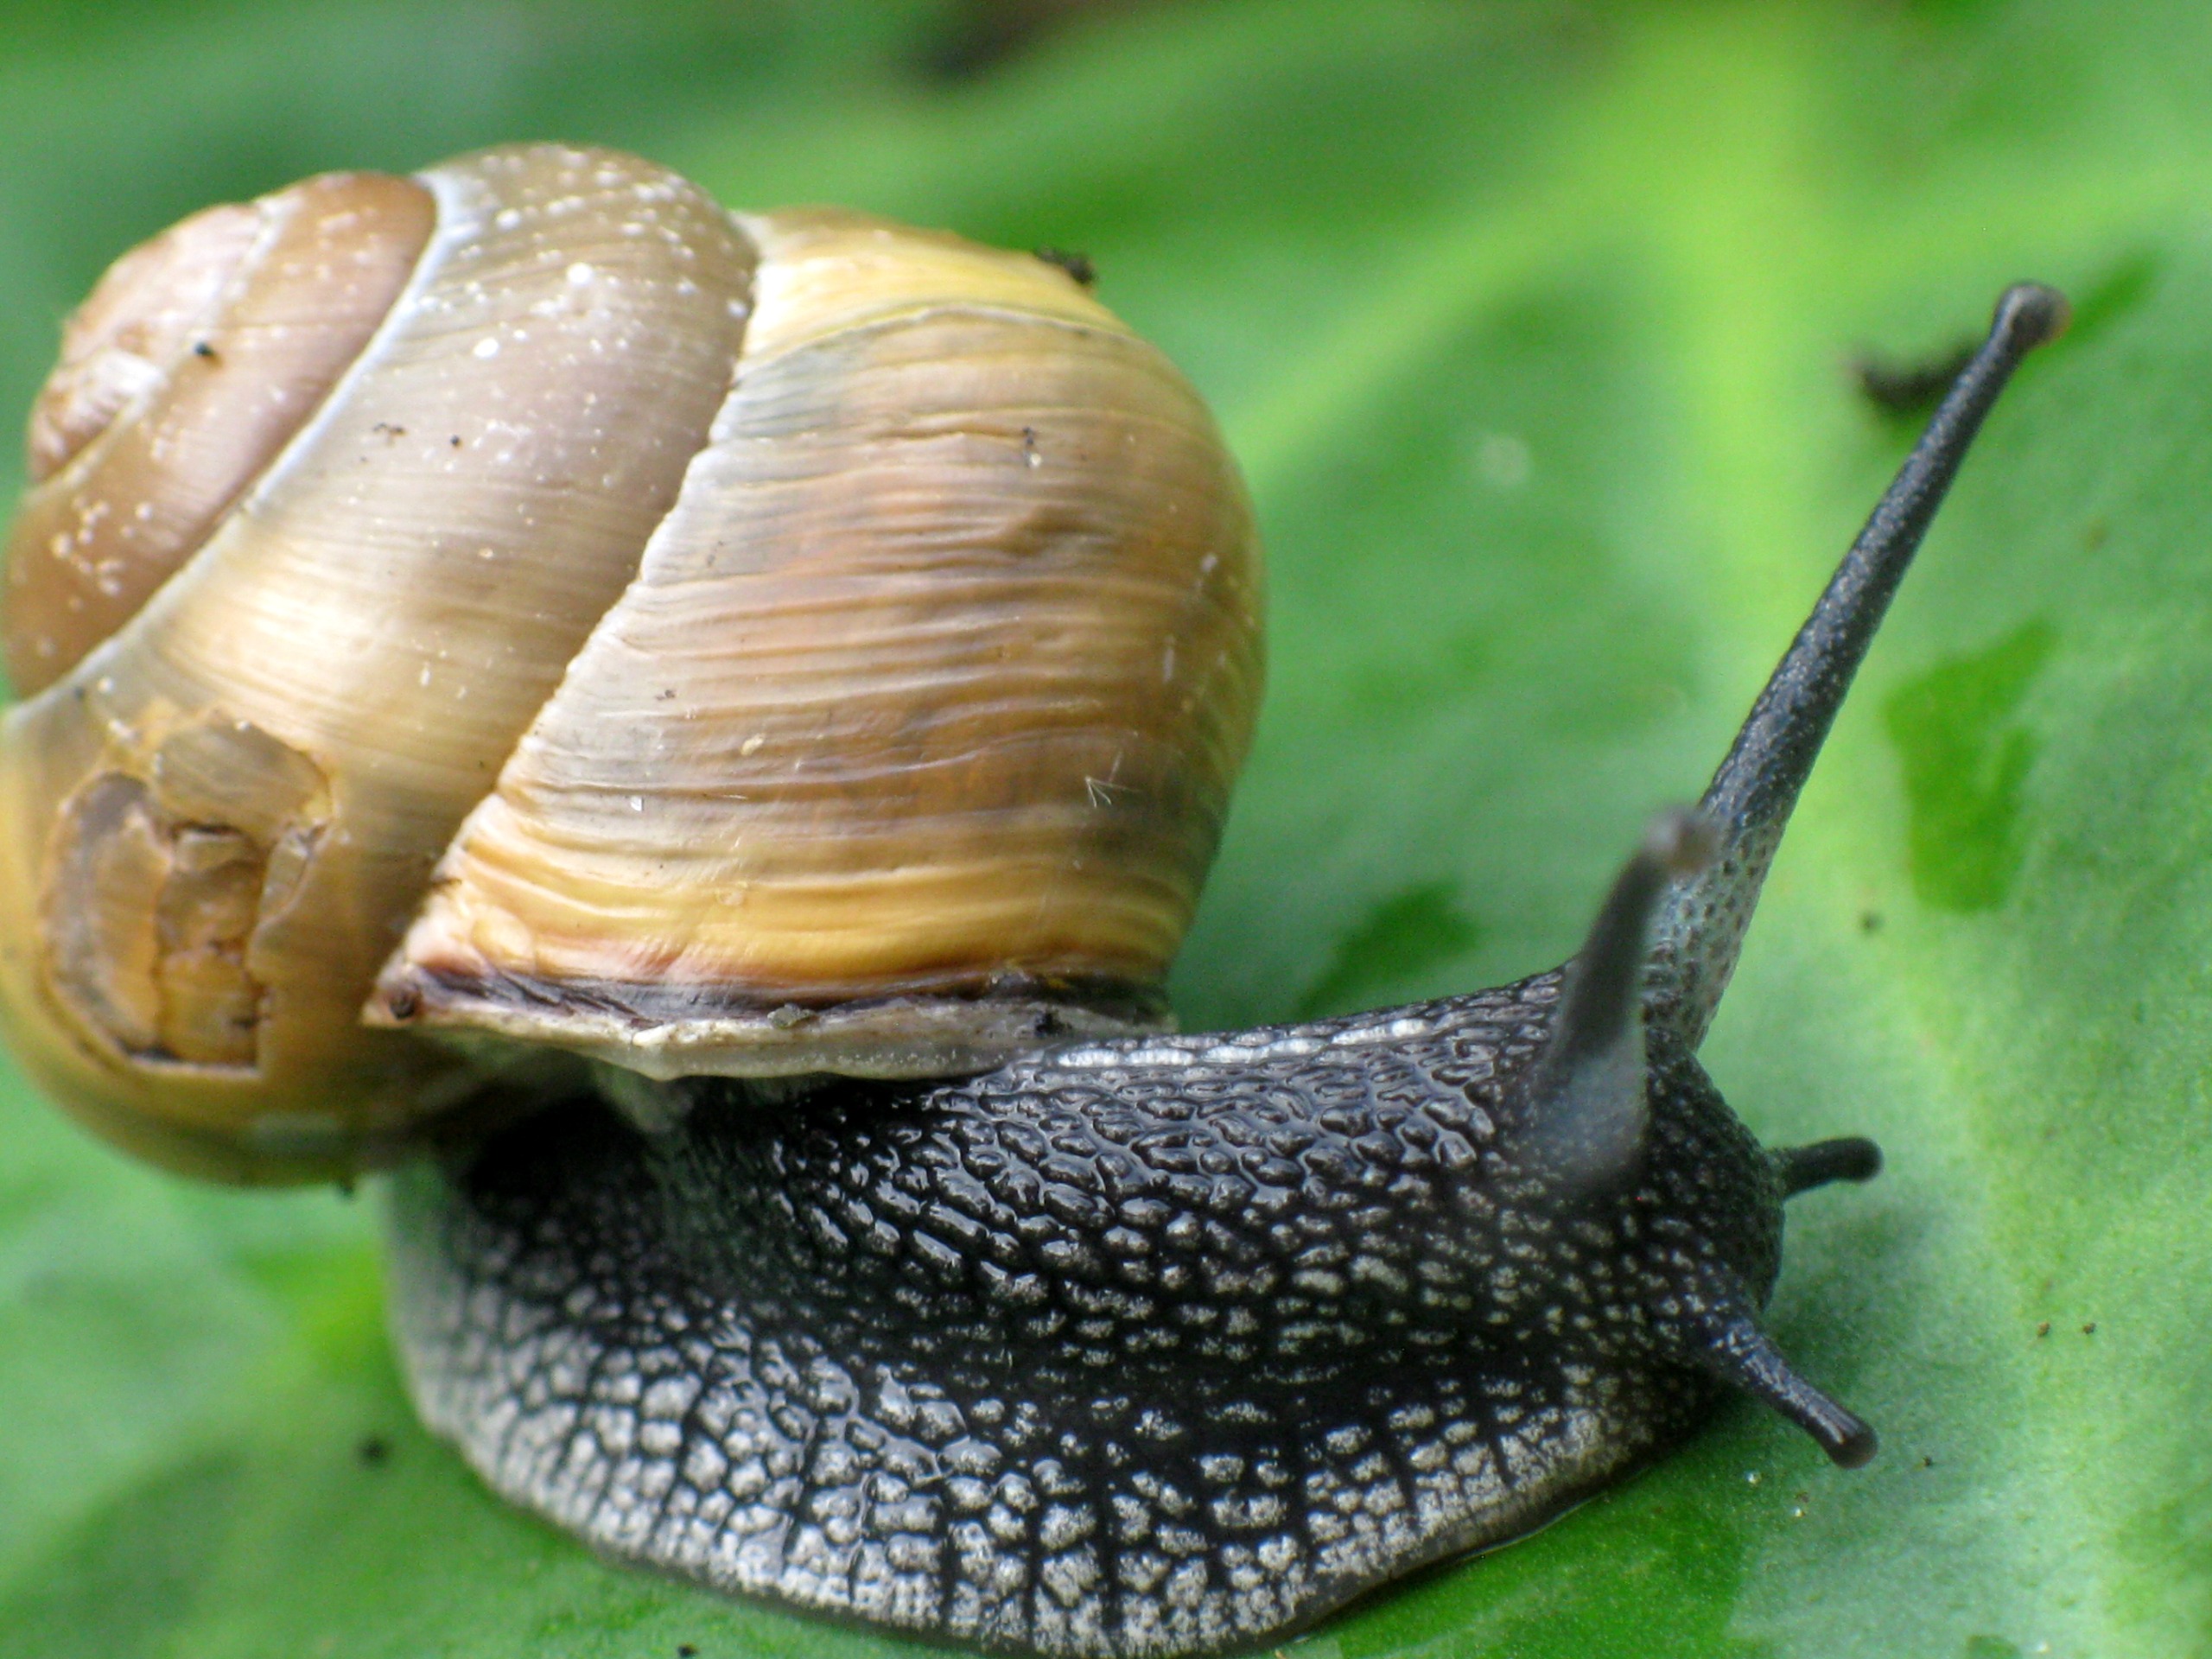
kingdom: Animalia
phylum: Mollusca
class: Gastropoda
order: Stylommatophora
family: Helicidae
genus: Cepaea
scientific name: Cepaea nemoralis
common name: Lundsnegl
